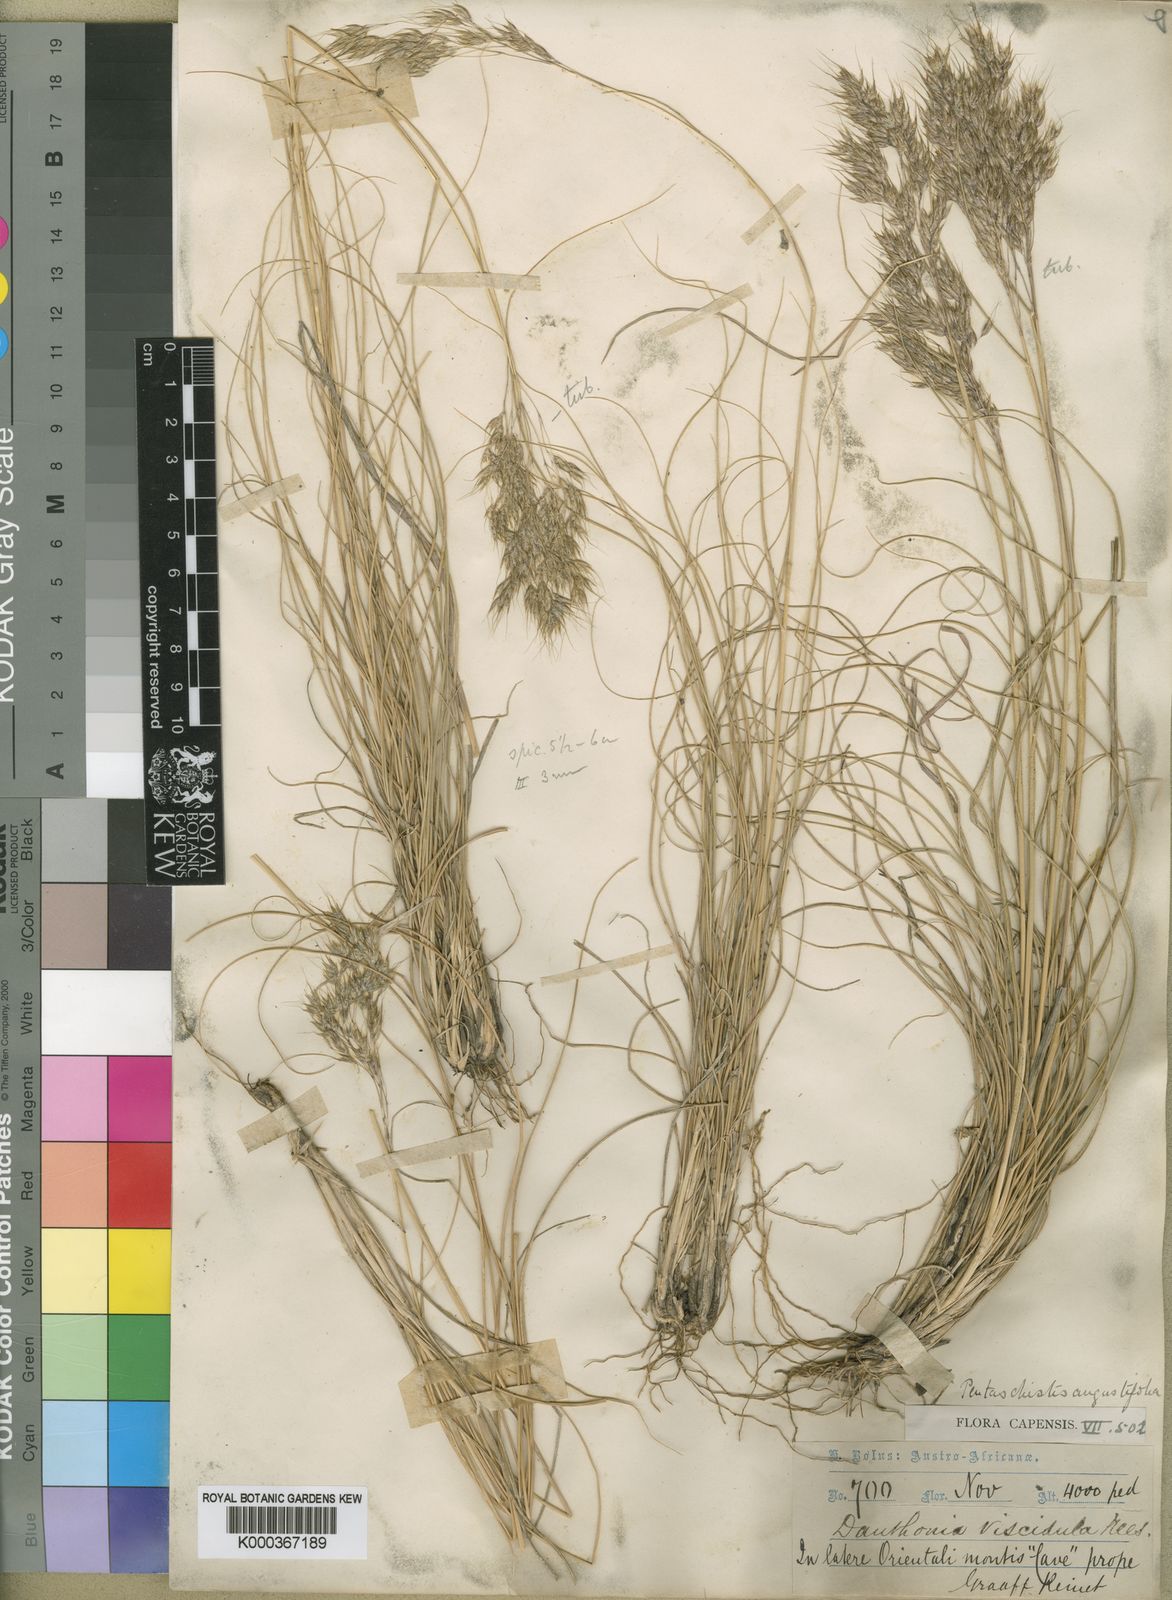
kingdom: Plantae
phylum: Tracheophyta
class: Liliopsida
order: Poales
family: Poaceae
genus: Pentameris
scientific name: Pentameris pallida
